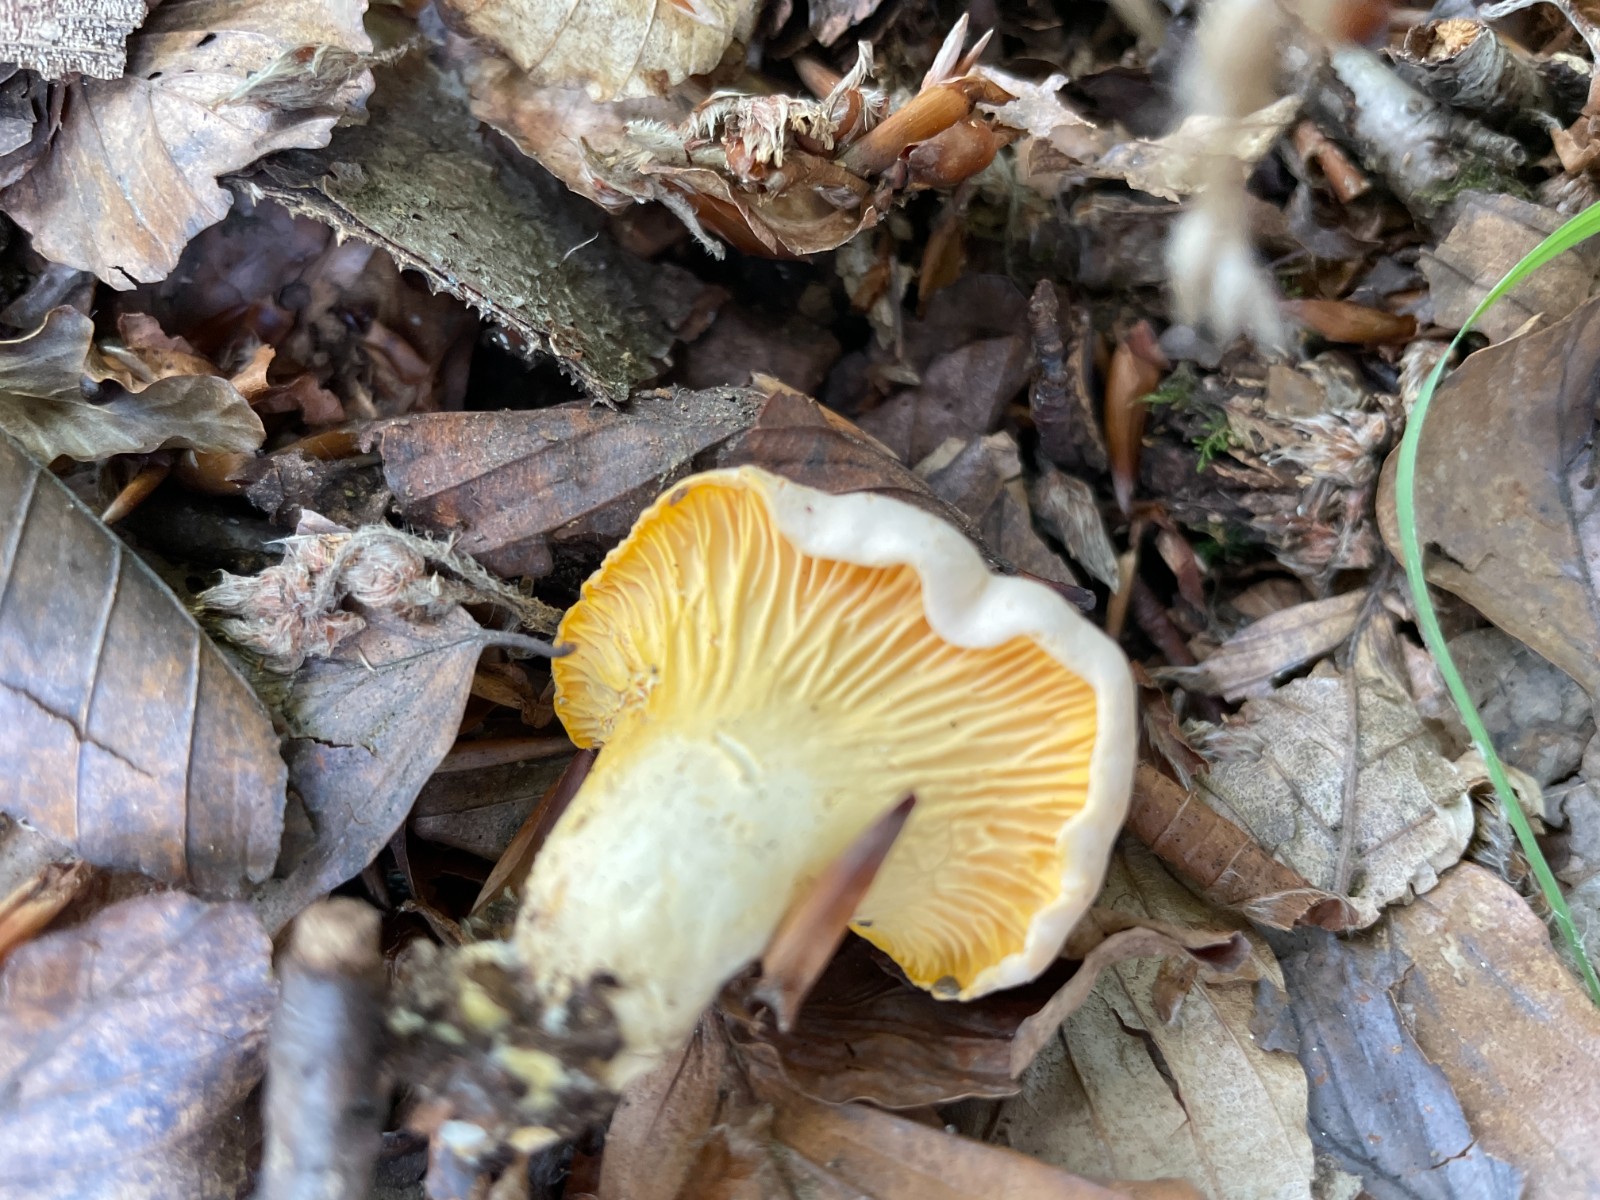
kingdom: Fungi
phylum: Basidiomycota
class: Agaricomycetes
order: Cantharellales
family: Hydnaceae
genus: Cantharellus
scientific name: Cantharellus pallens
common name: bleg kantarel
